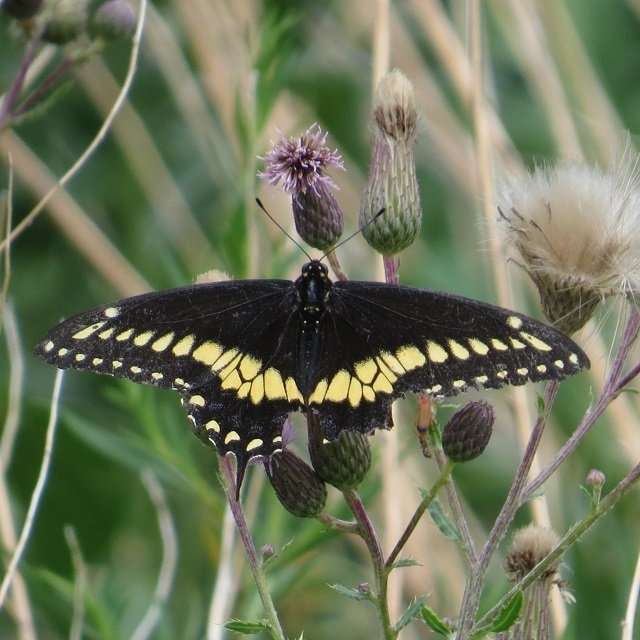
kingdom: Animalia
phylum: Arthropoda
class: Insecta
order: Lepidoptera
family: Papilionidae
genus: Papilio
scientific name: Papilio polyxenes
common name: Black Swallowtail
